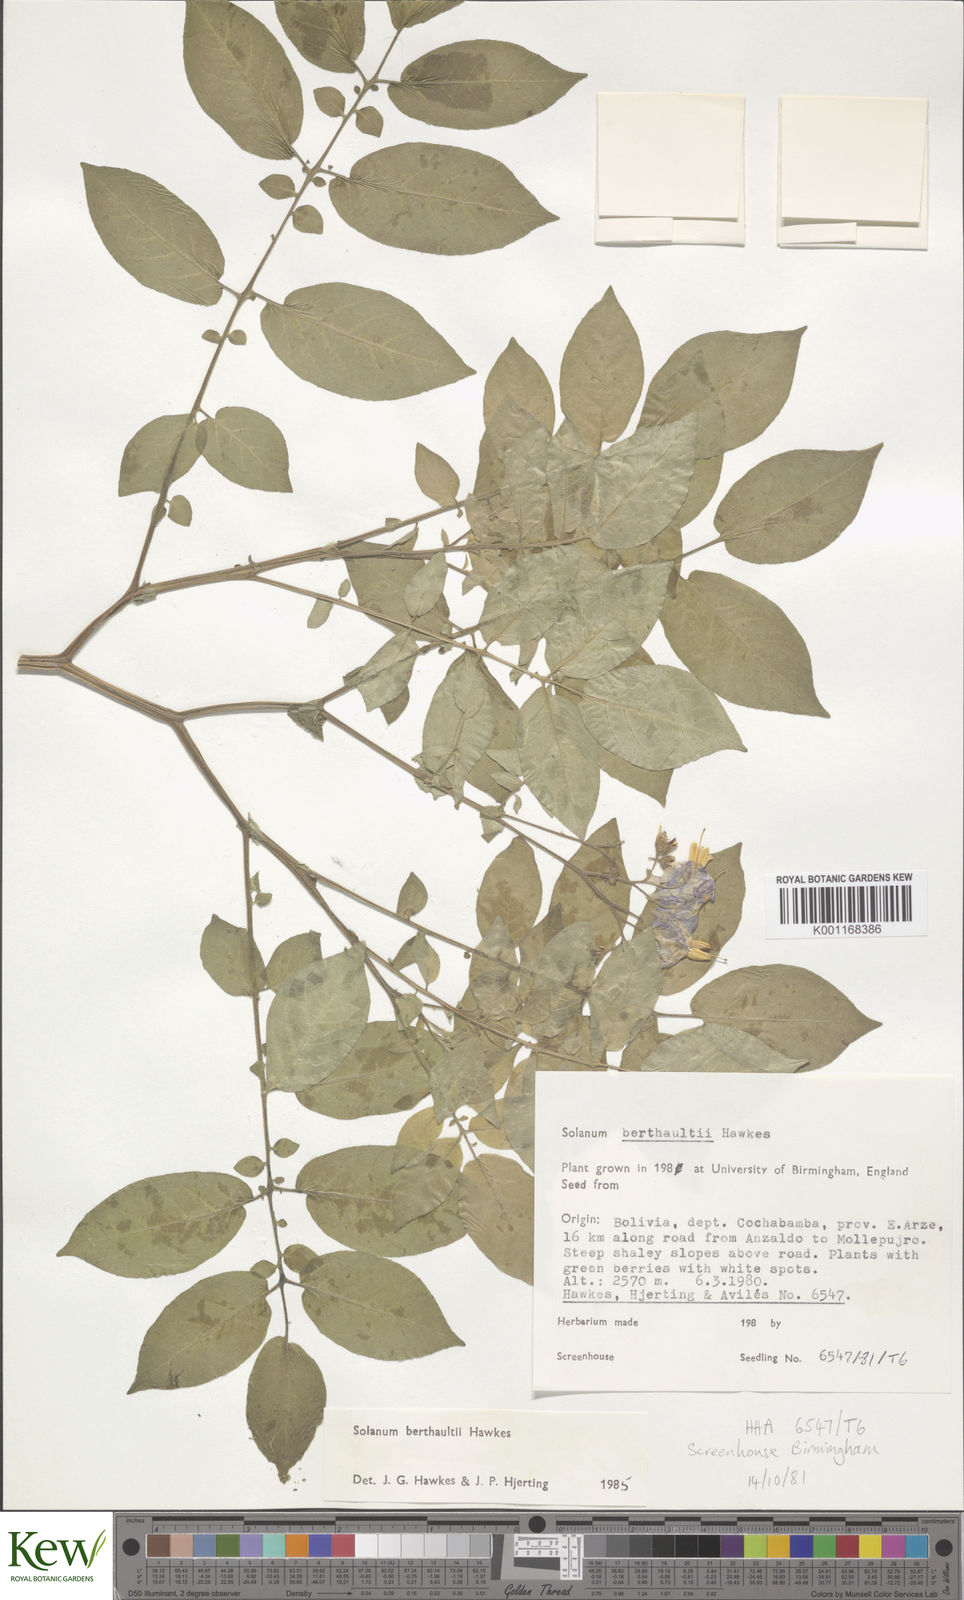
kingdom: Plantae
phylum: Tracheophyta
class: Magnoliopsida
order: Solanales
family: Solanaceae
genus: Solanum
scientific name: Solanum berthaultii
